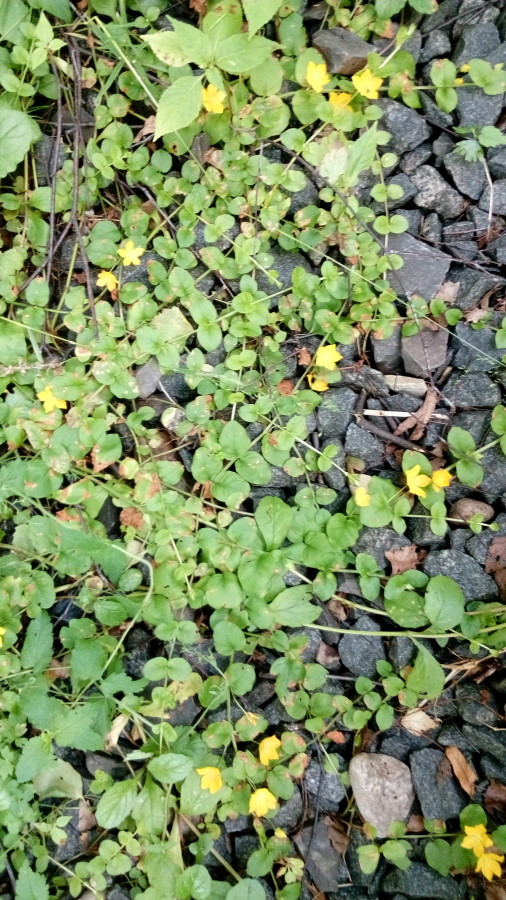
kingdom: Plantae
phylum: Tracheophyta
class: Magnoliopsida
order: Ericales
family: Primulaceae
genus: Lysimachia
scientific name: Lysimachia nummularia
